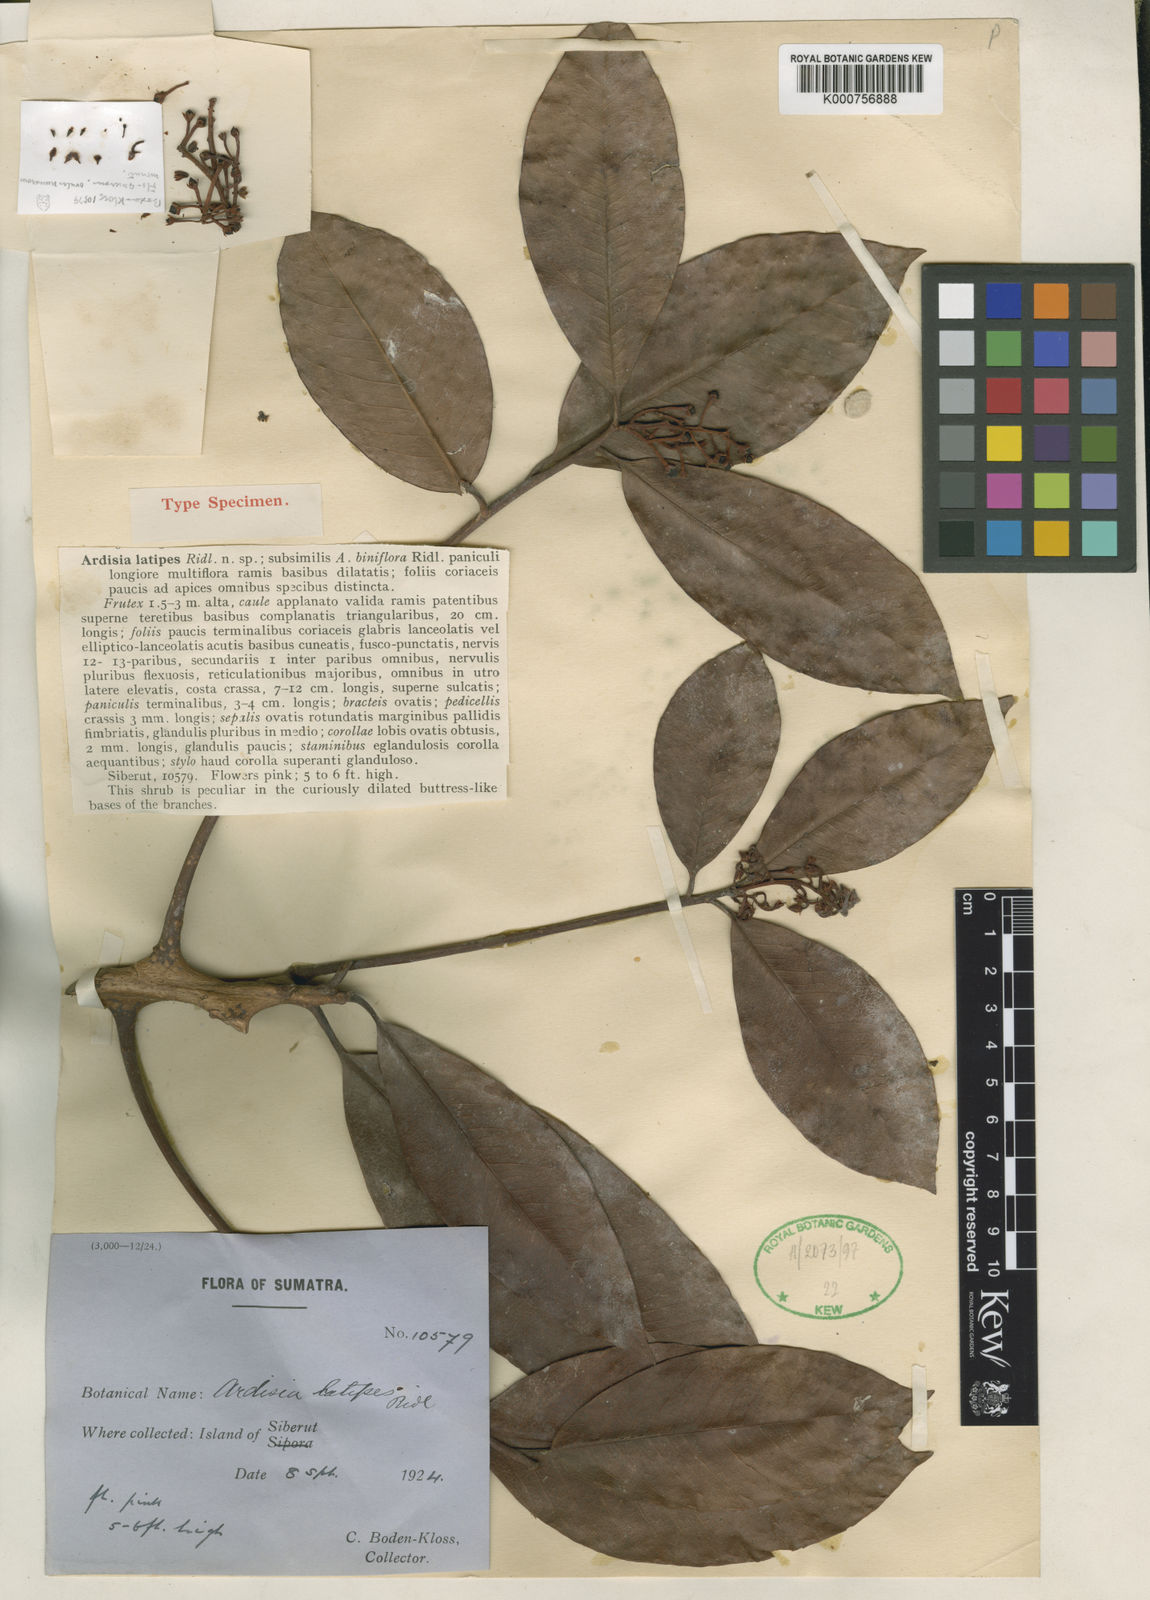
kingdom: Plantae
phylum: Tracheophyta
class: Magnoliopsida
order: Ericales
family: Primulaceae
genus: Ardisia
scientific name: Ardisia latipes
